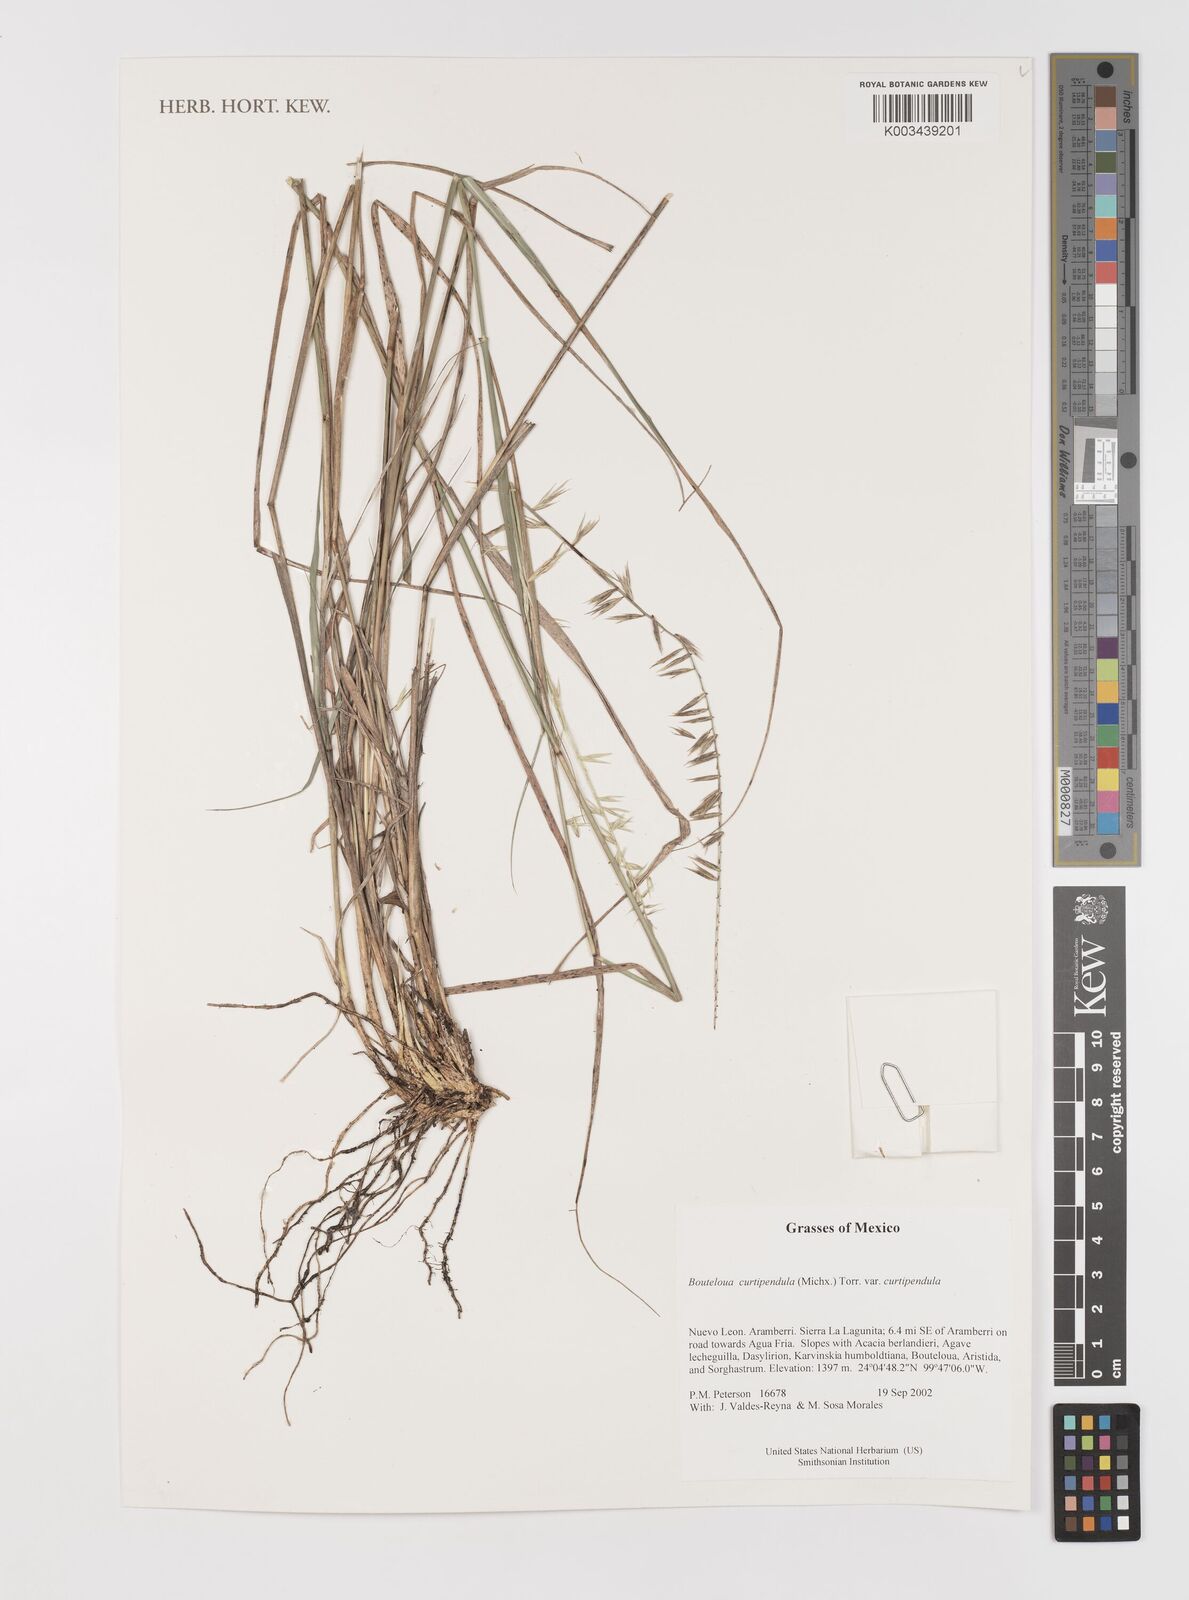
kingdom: Plantae
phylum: Tracheophyta
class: Liliopsida
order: Poales
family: Poaceae
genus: Bouteloua
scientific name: Bouteloua curtipendula
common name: Side-oats grama
